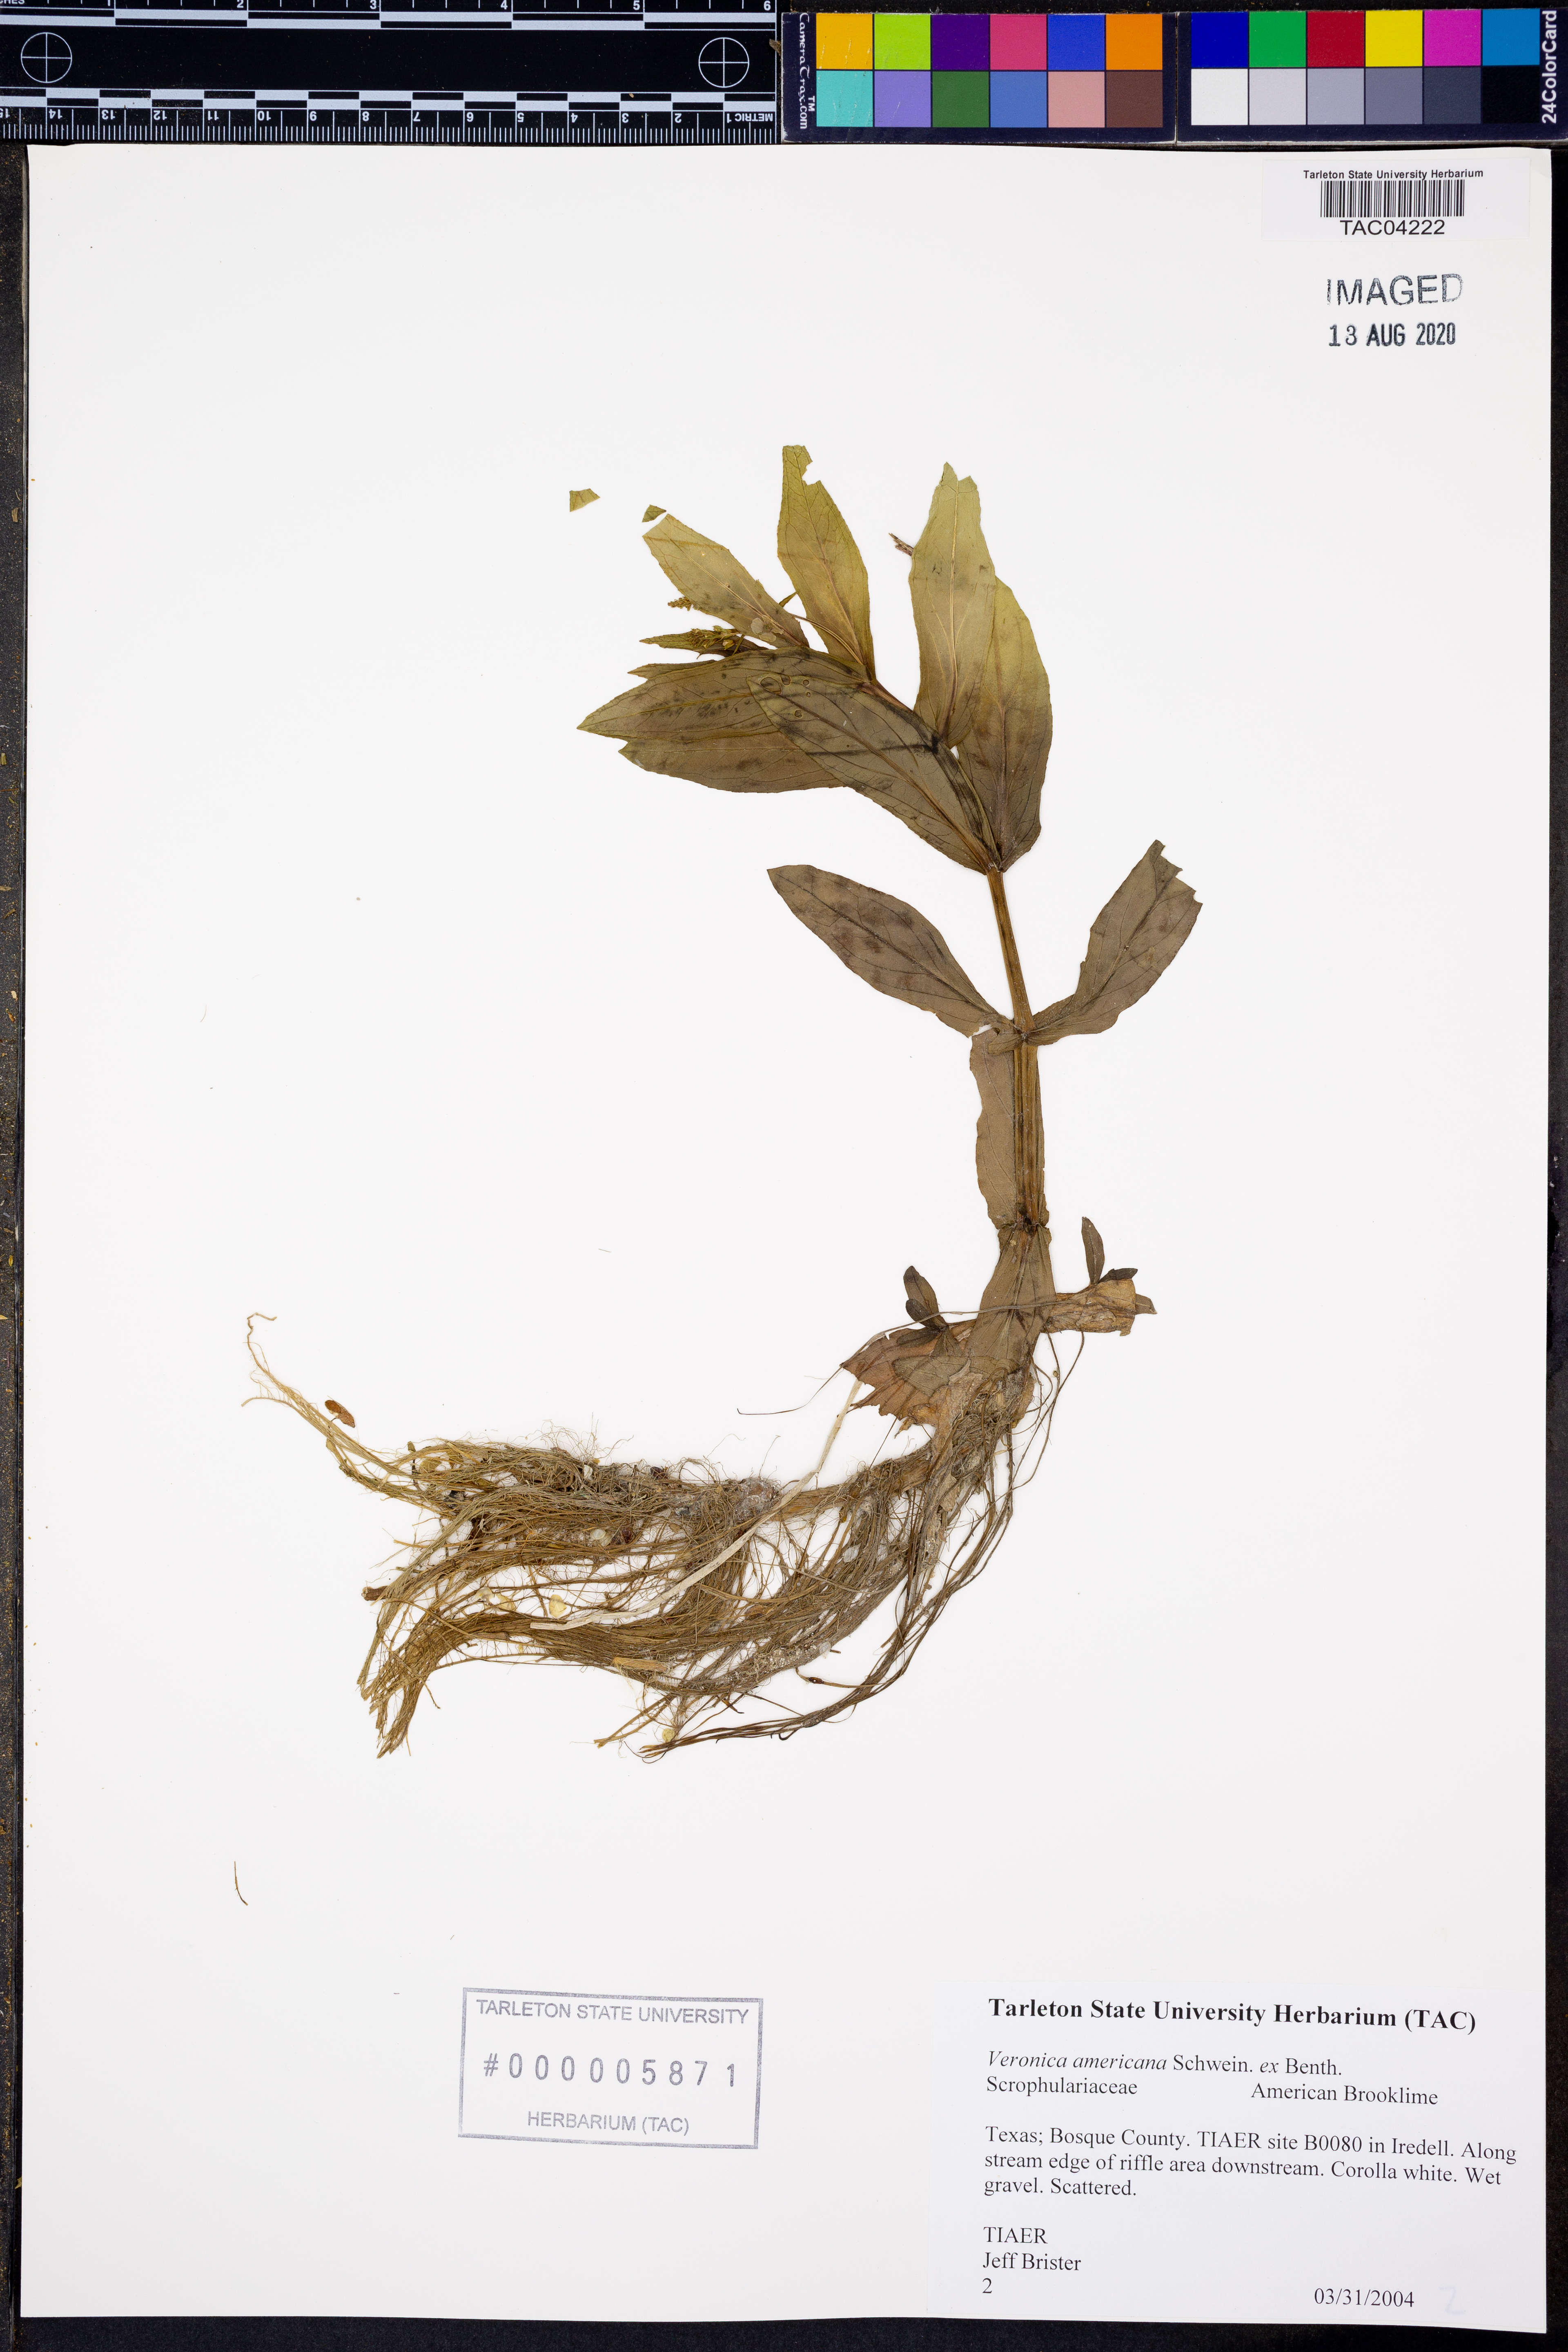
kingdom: Plantae
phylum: Tracheophyta
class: Magnoliopsida
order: Lamiales
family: Plantaginaceae
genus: Veronica
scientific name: Veronica americana
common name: American brooklime
